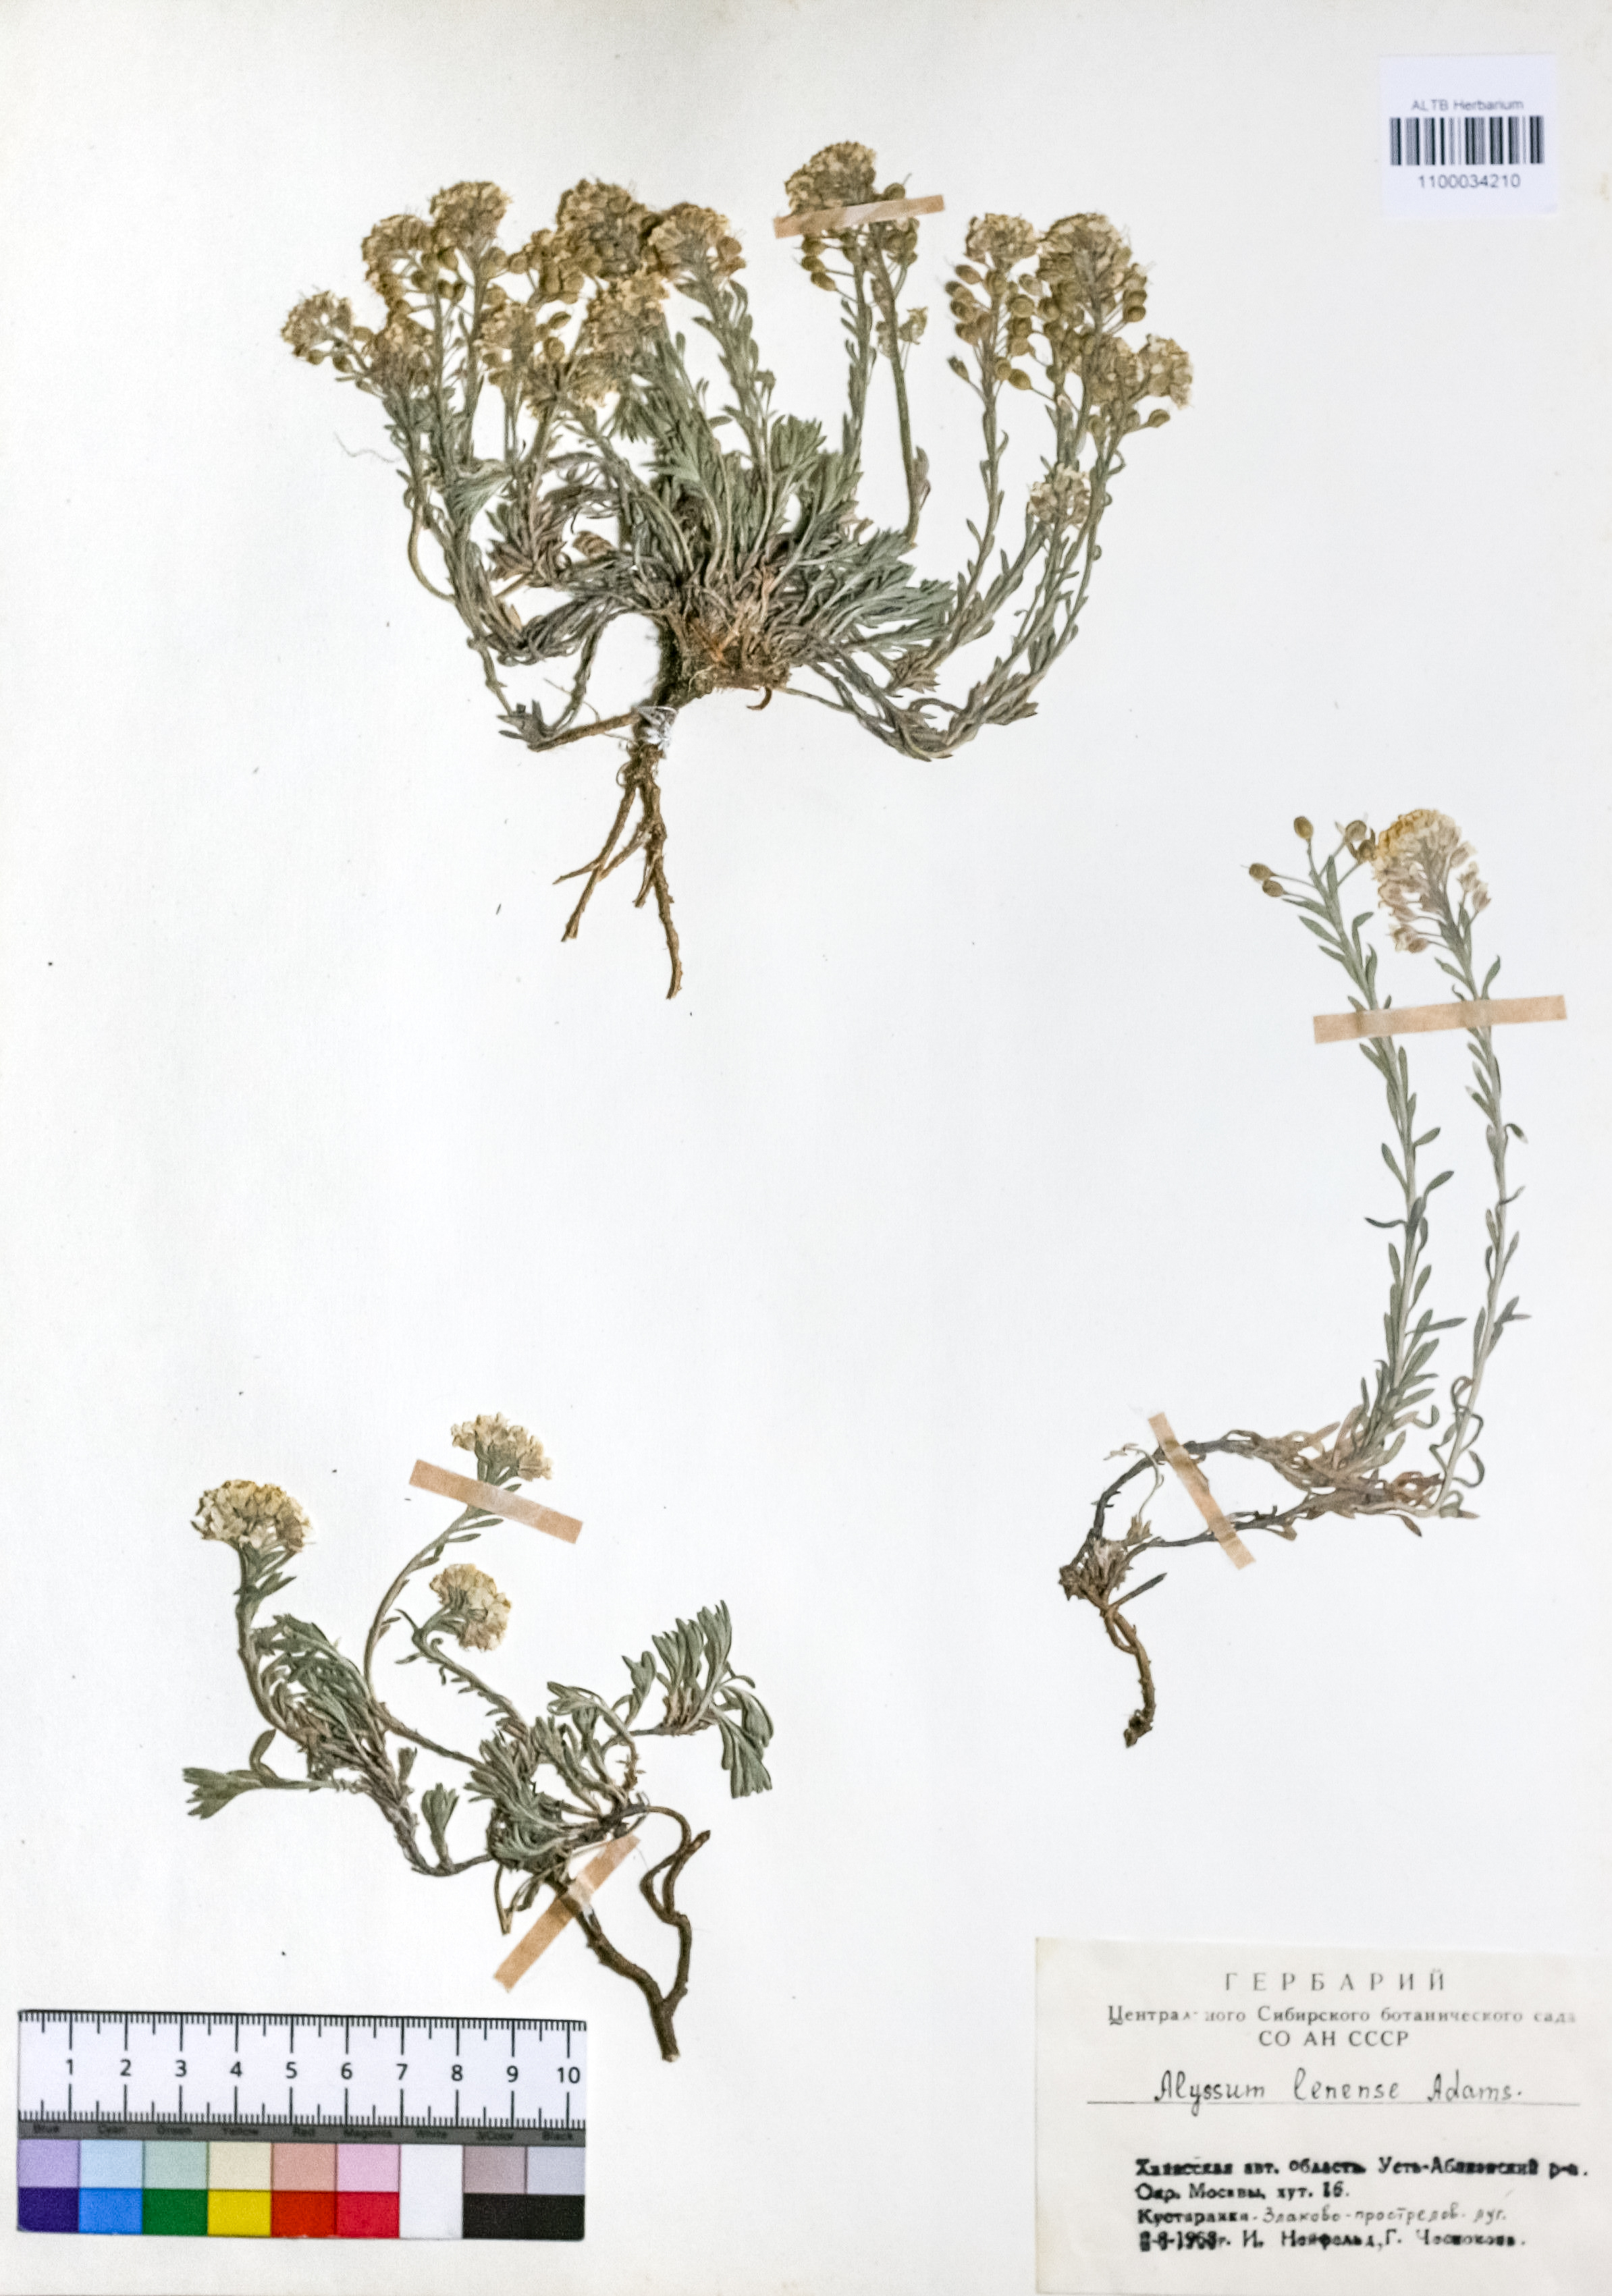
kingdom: Plantae
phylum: Tracheophyta
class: Magnoliopsida
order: Brassicales
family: Brassicaceae
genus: Alyssum
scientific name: Alyssum lenense
